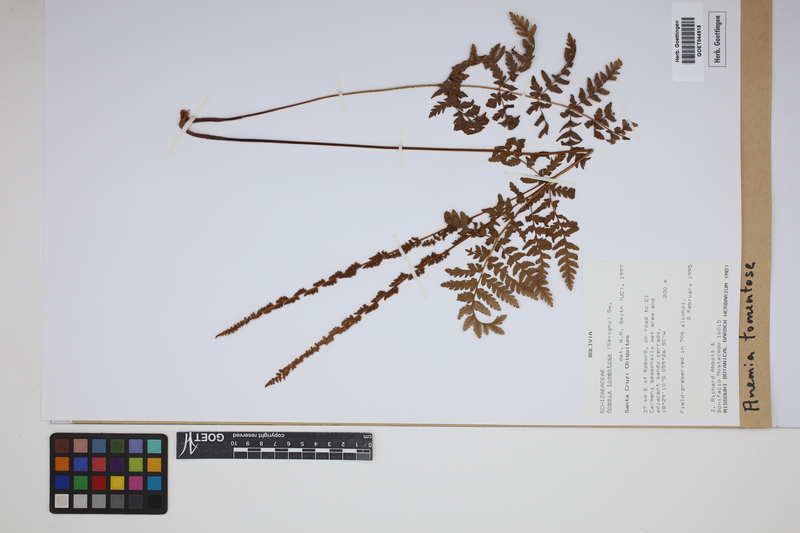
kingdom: Plantae
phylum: Tracheophyta
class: Polypodiopsida
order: Schizaeales
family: Anemiaceae
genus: Anemia
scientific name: Anemia tomentosa
